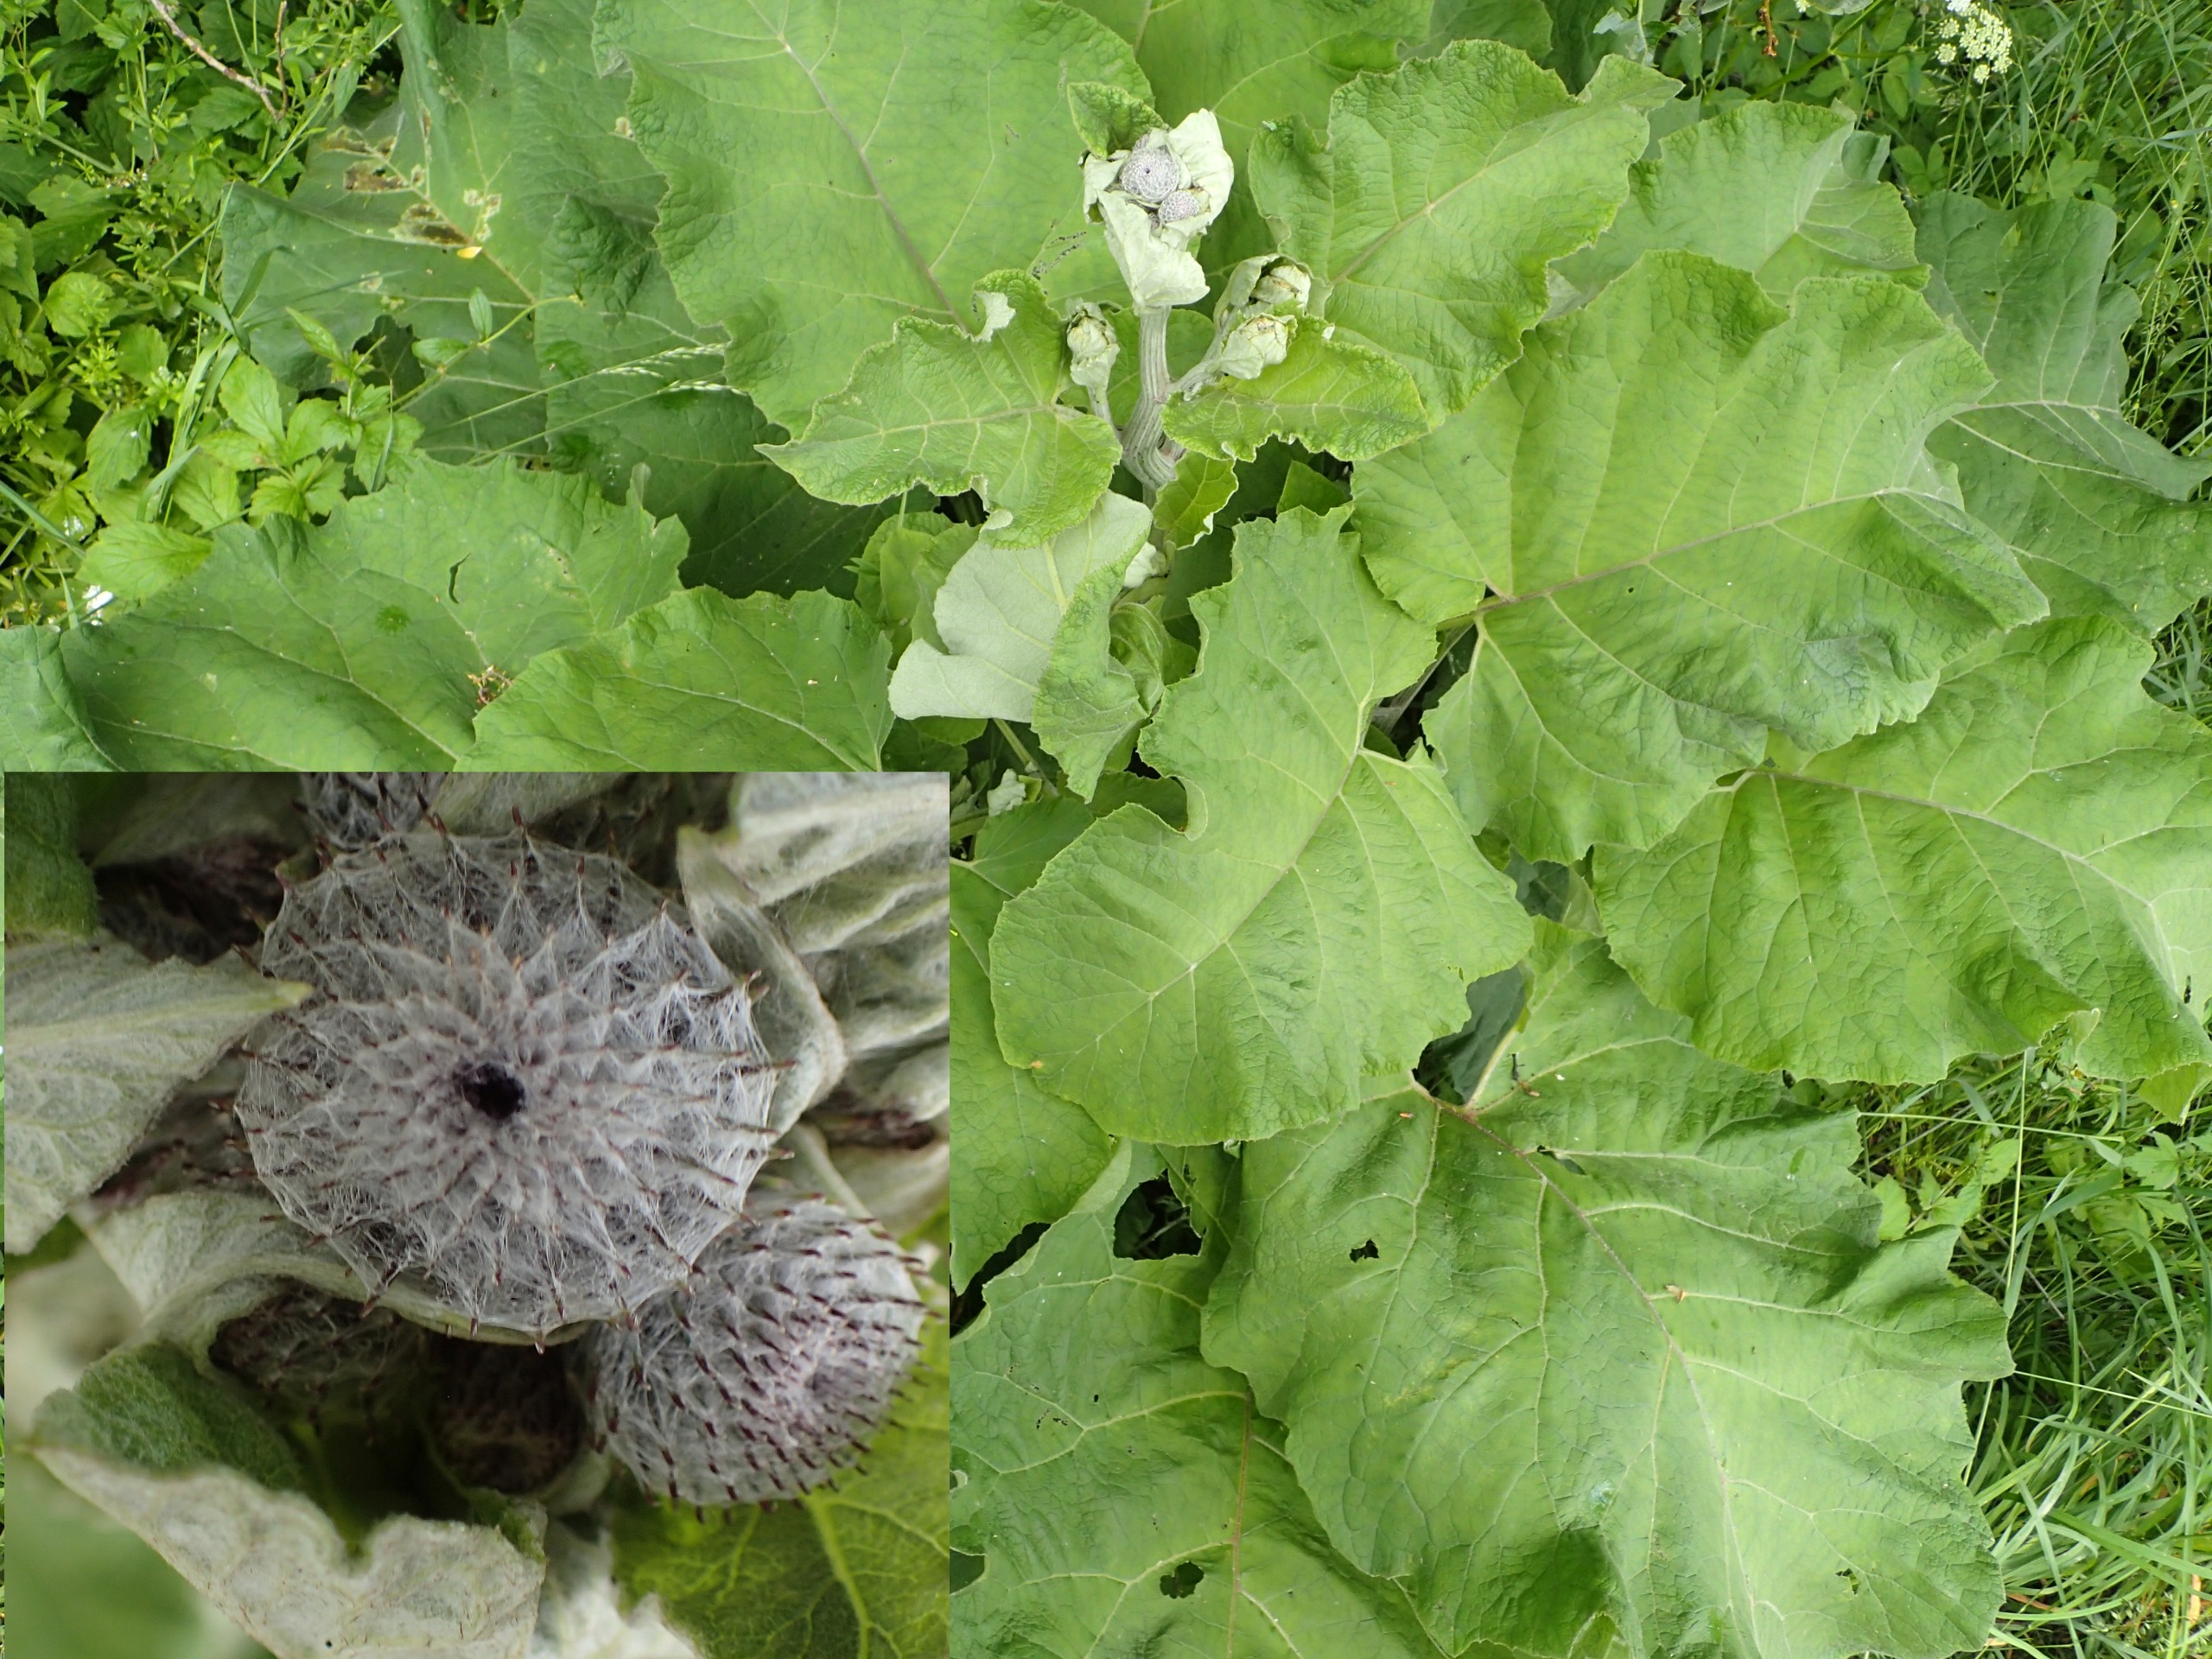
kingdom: Plantae
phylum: Tracheophyta
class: Magnoliopsida
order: Asterales
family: Asteraceae
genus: Arctium
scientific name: Arctium tomentosum
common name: Filtet burre
